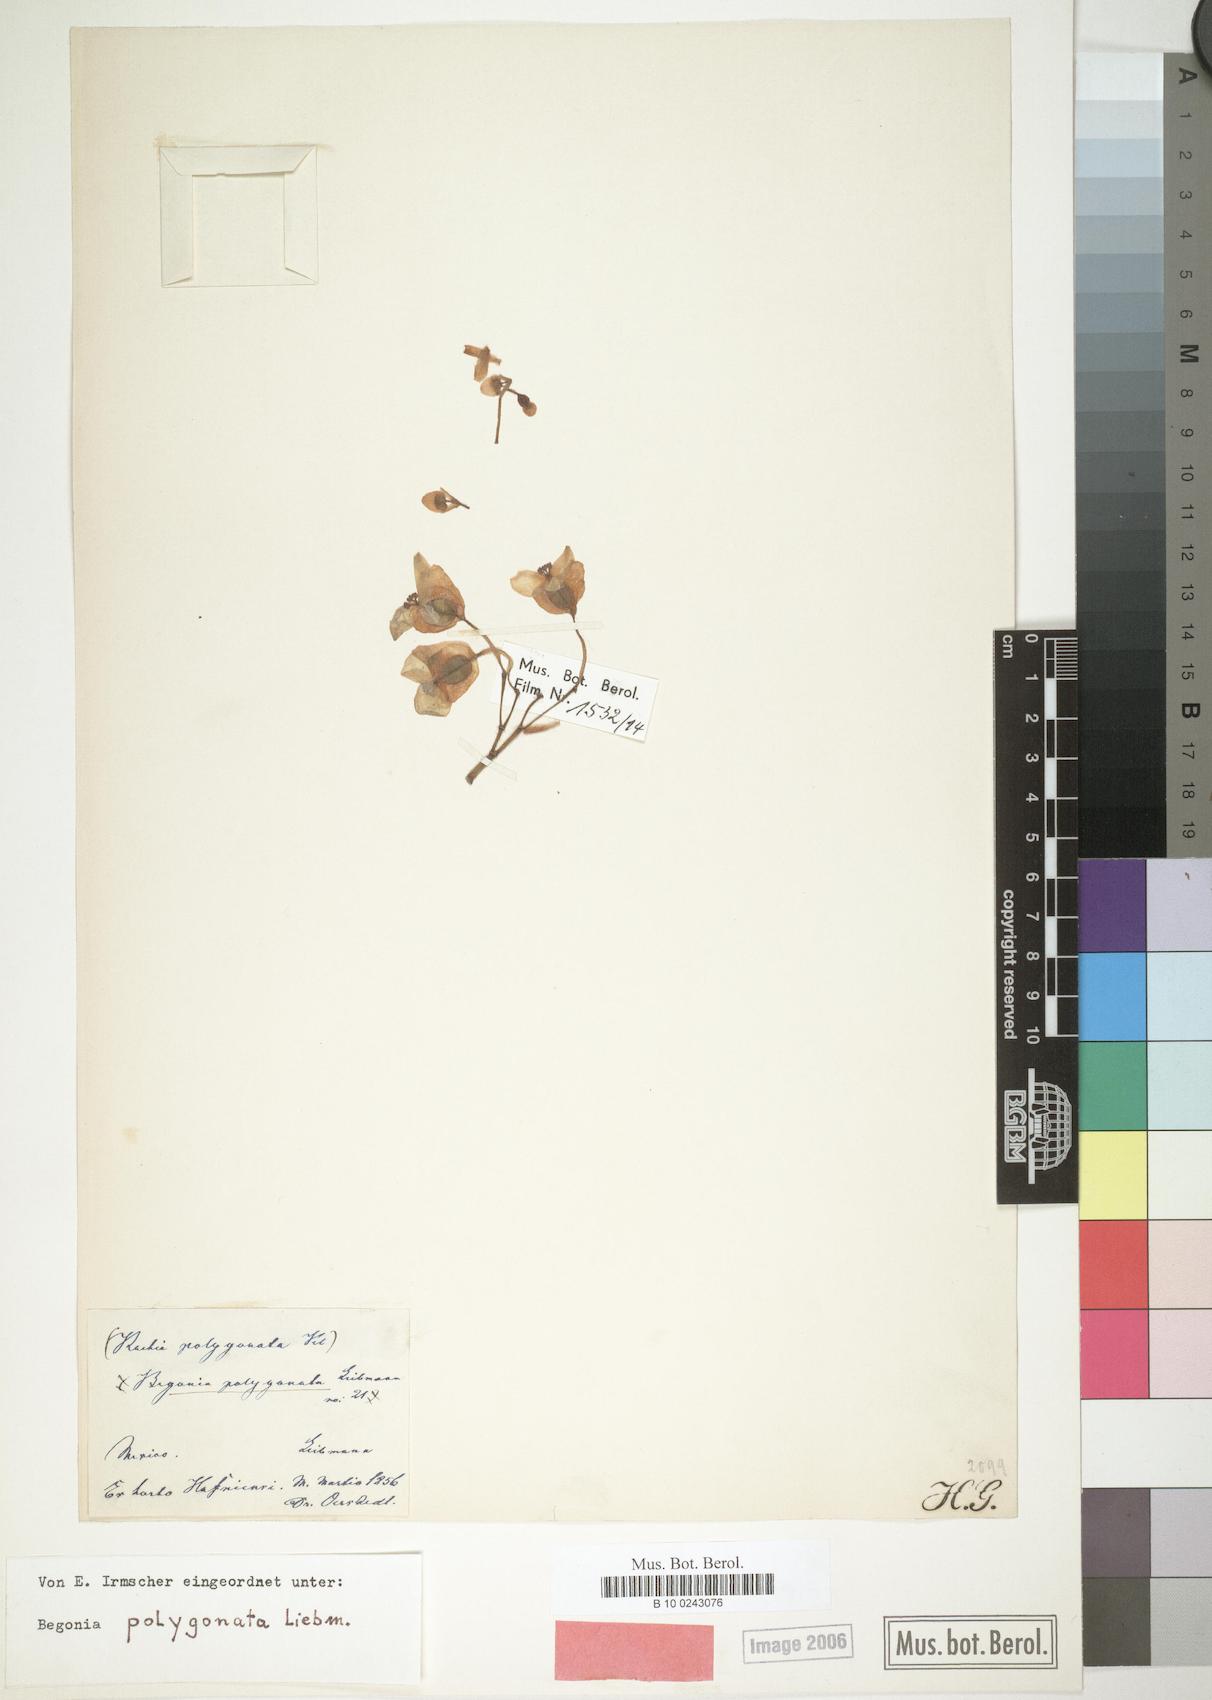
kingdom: Plantae
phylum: Tracheophyta
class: Magnoliopsida
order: Cucurbitales
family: Begoniaceae
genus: Begonia
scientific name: Begonia polygonata
